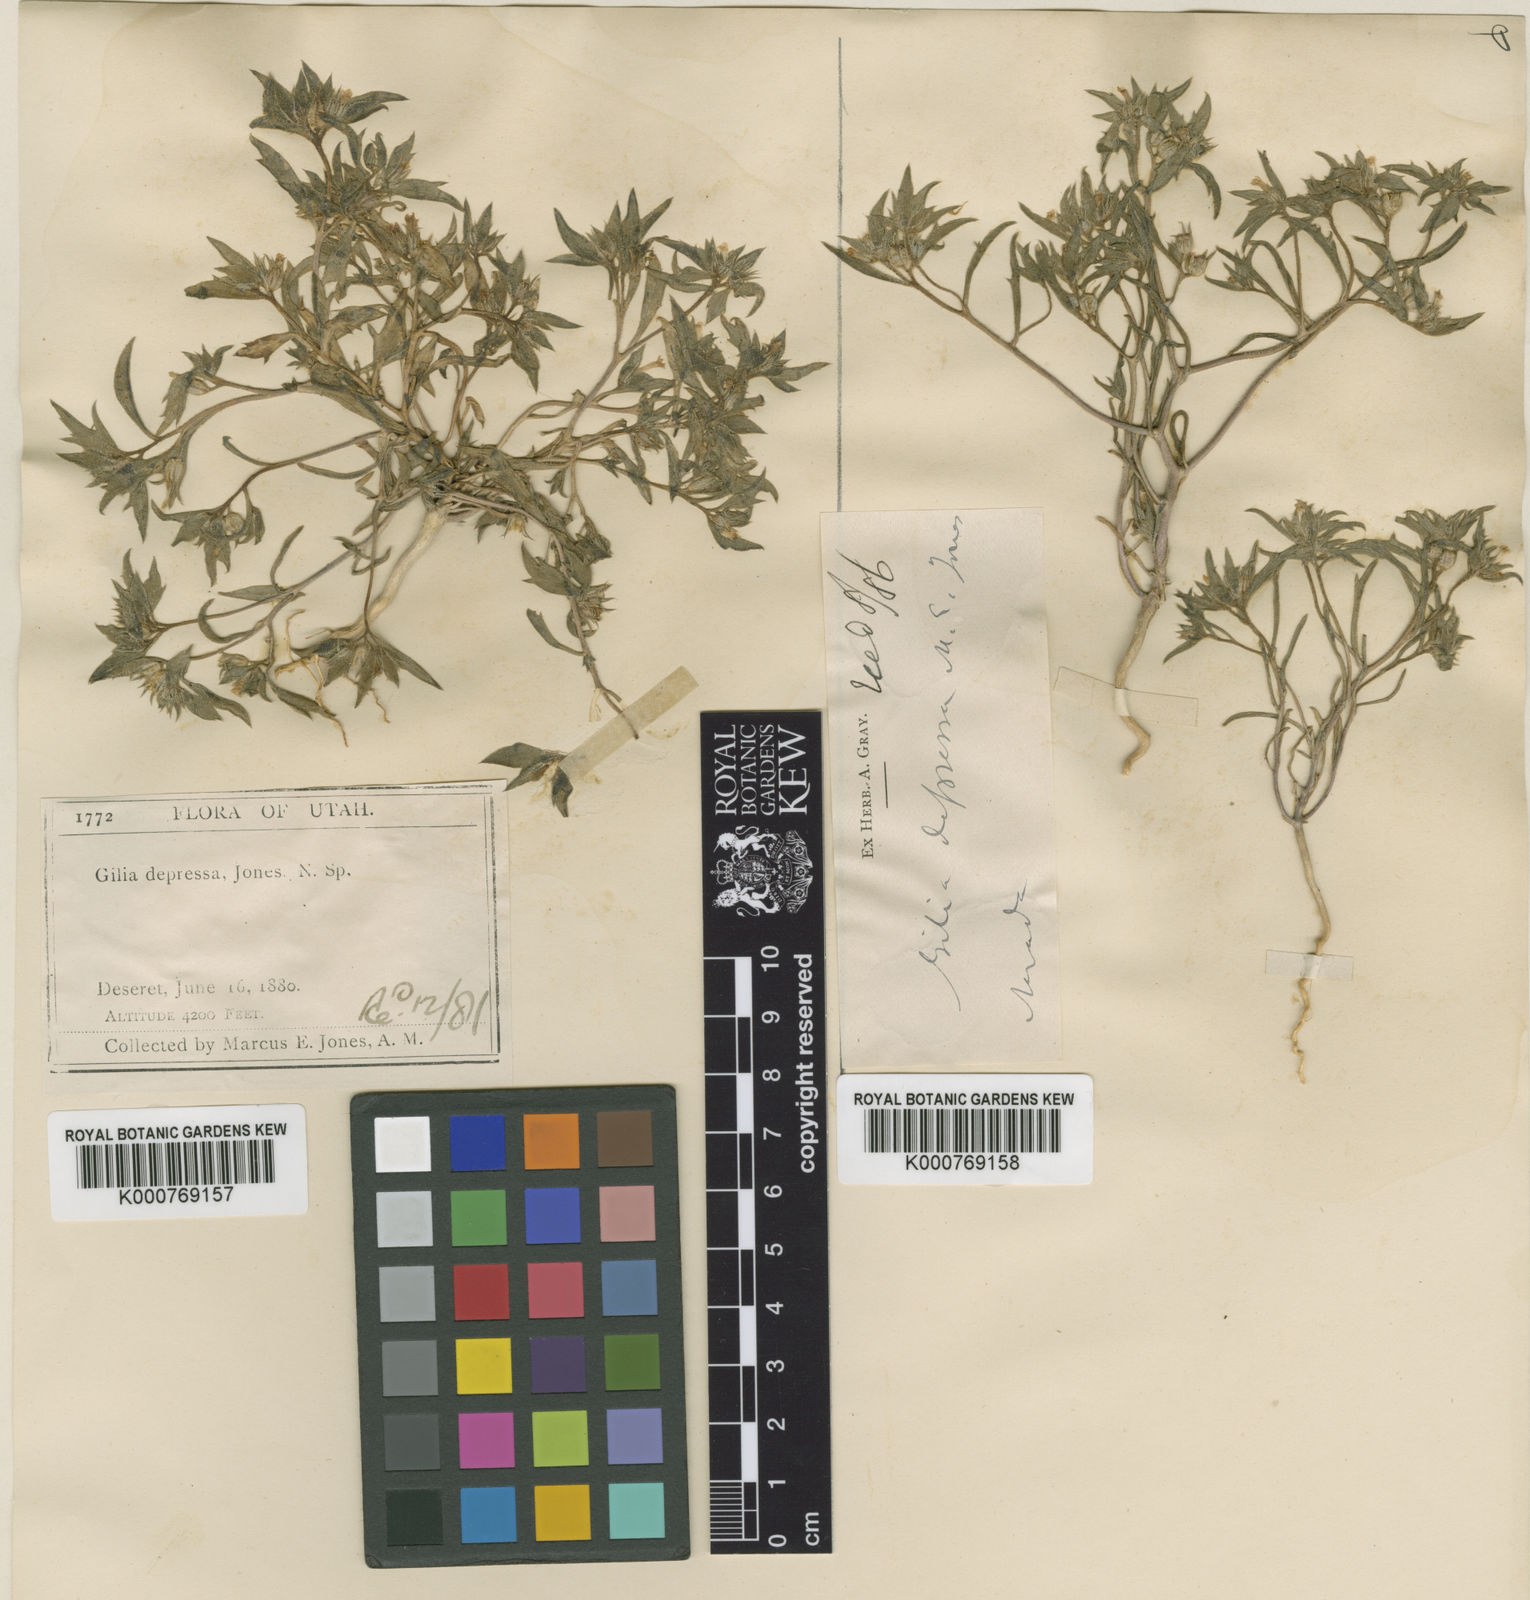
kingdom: Plantae
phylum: Tracheophyta
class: Magnoliopsida
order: Ericales
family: Polemoniaceae
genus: Loeseliastrum
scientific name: Loeseliastrum depressum
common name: Depressed ipomopsis
